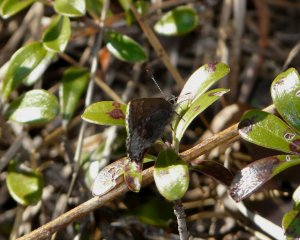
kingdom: Animalia
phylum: Arthropoda
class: Insecta
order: Lepidoptera
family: Lycaenidae
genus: Callophrys
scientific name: Callophrys polios
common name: Hoary Elfin
